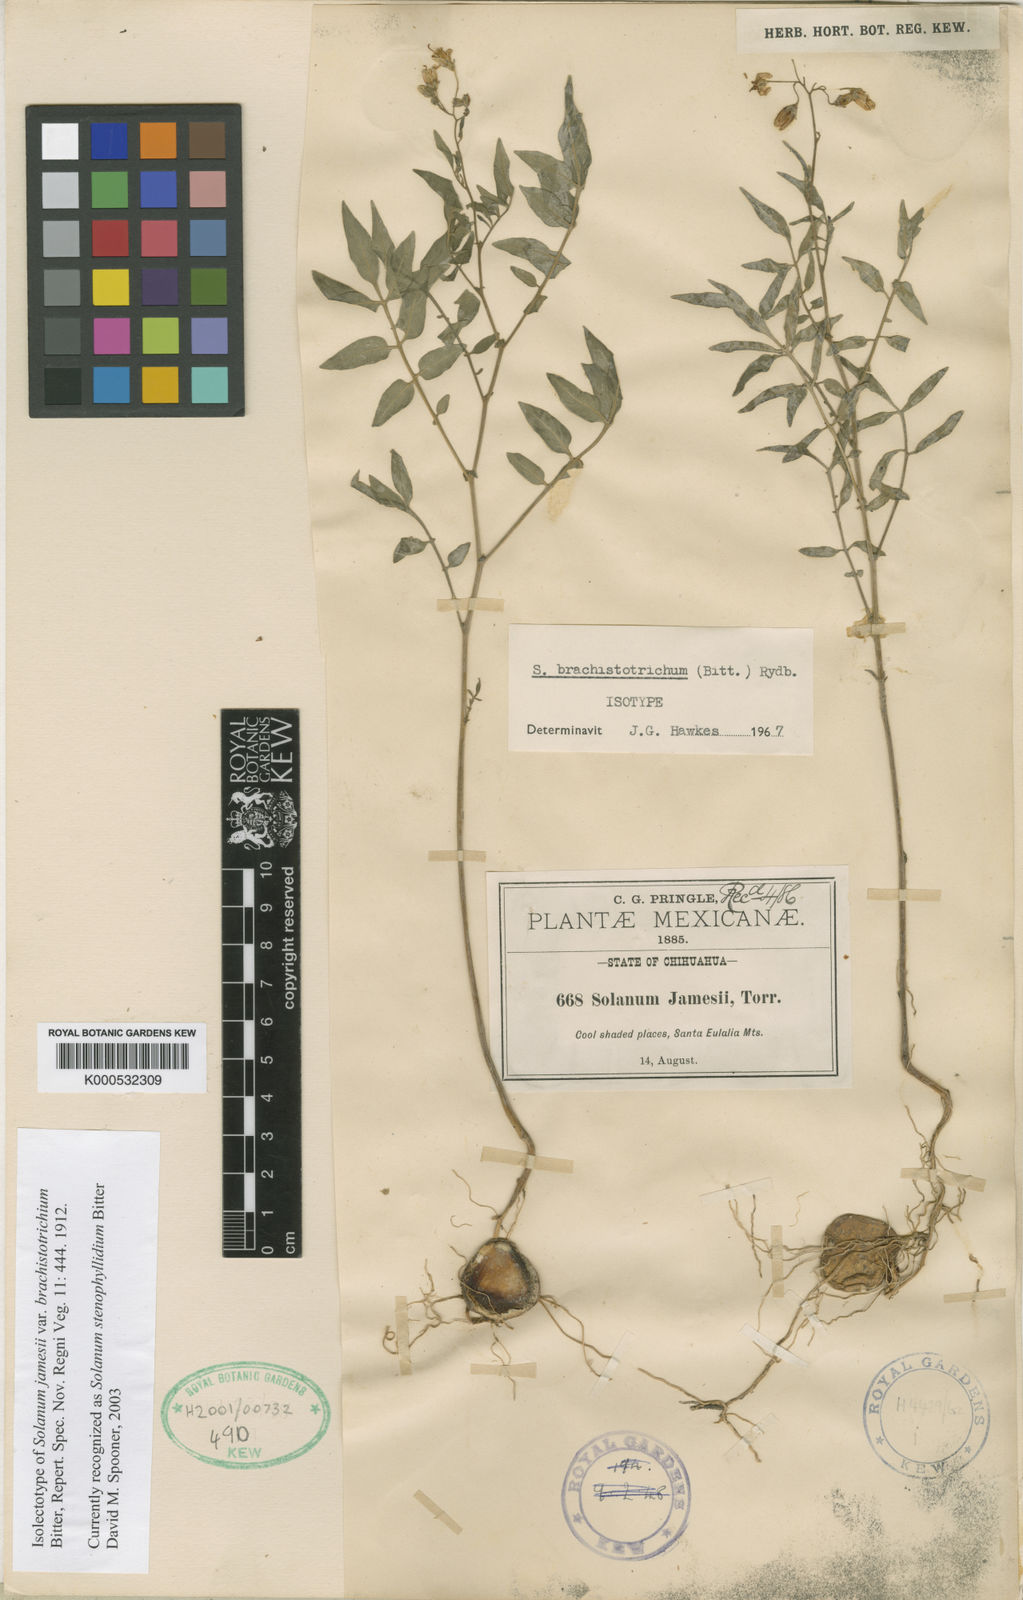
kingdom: Plantae
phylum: Tracheophyta
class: Magnoliopsida
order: Solanales
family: Solanaceae
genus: Solanum
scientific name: Solanum jamesii
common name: Wild potato
